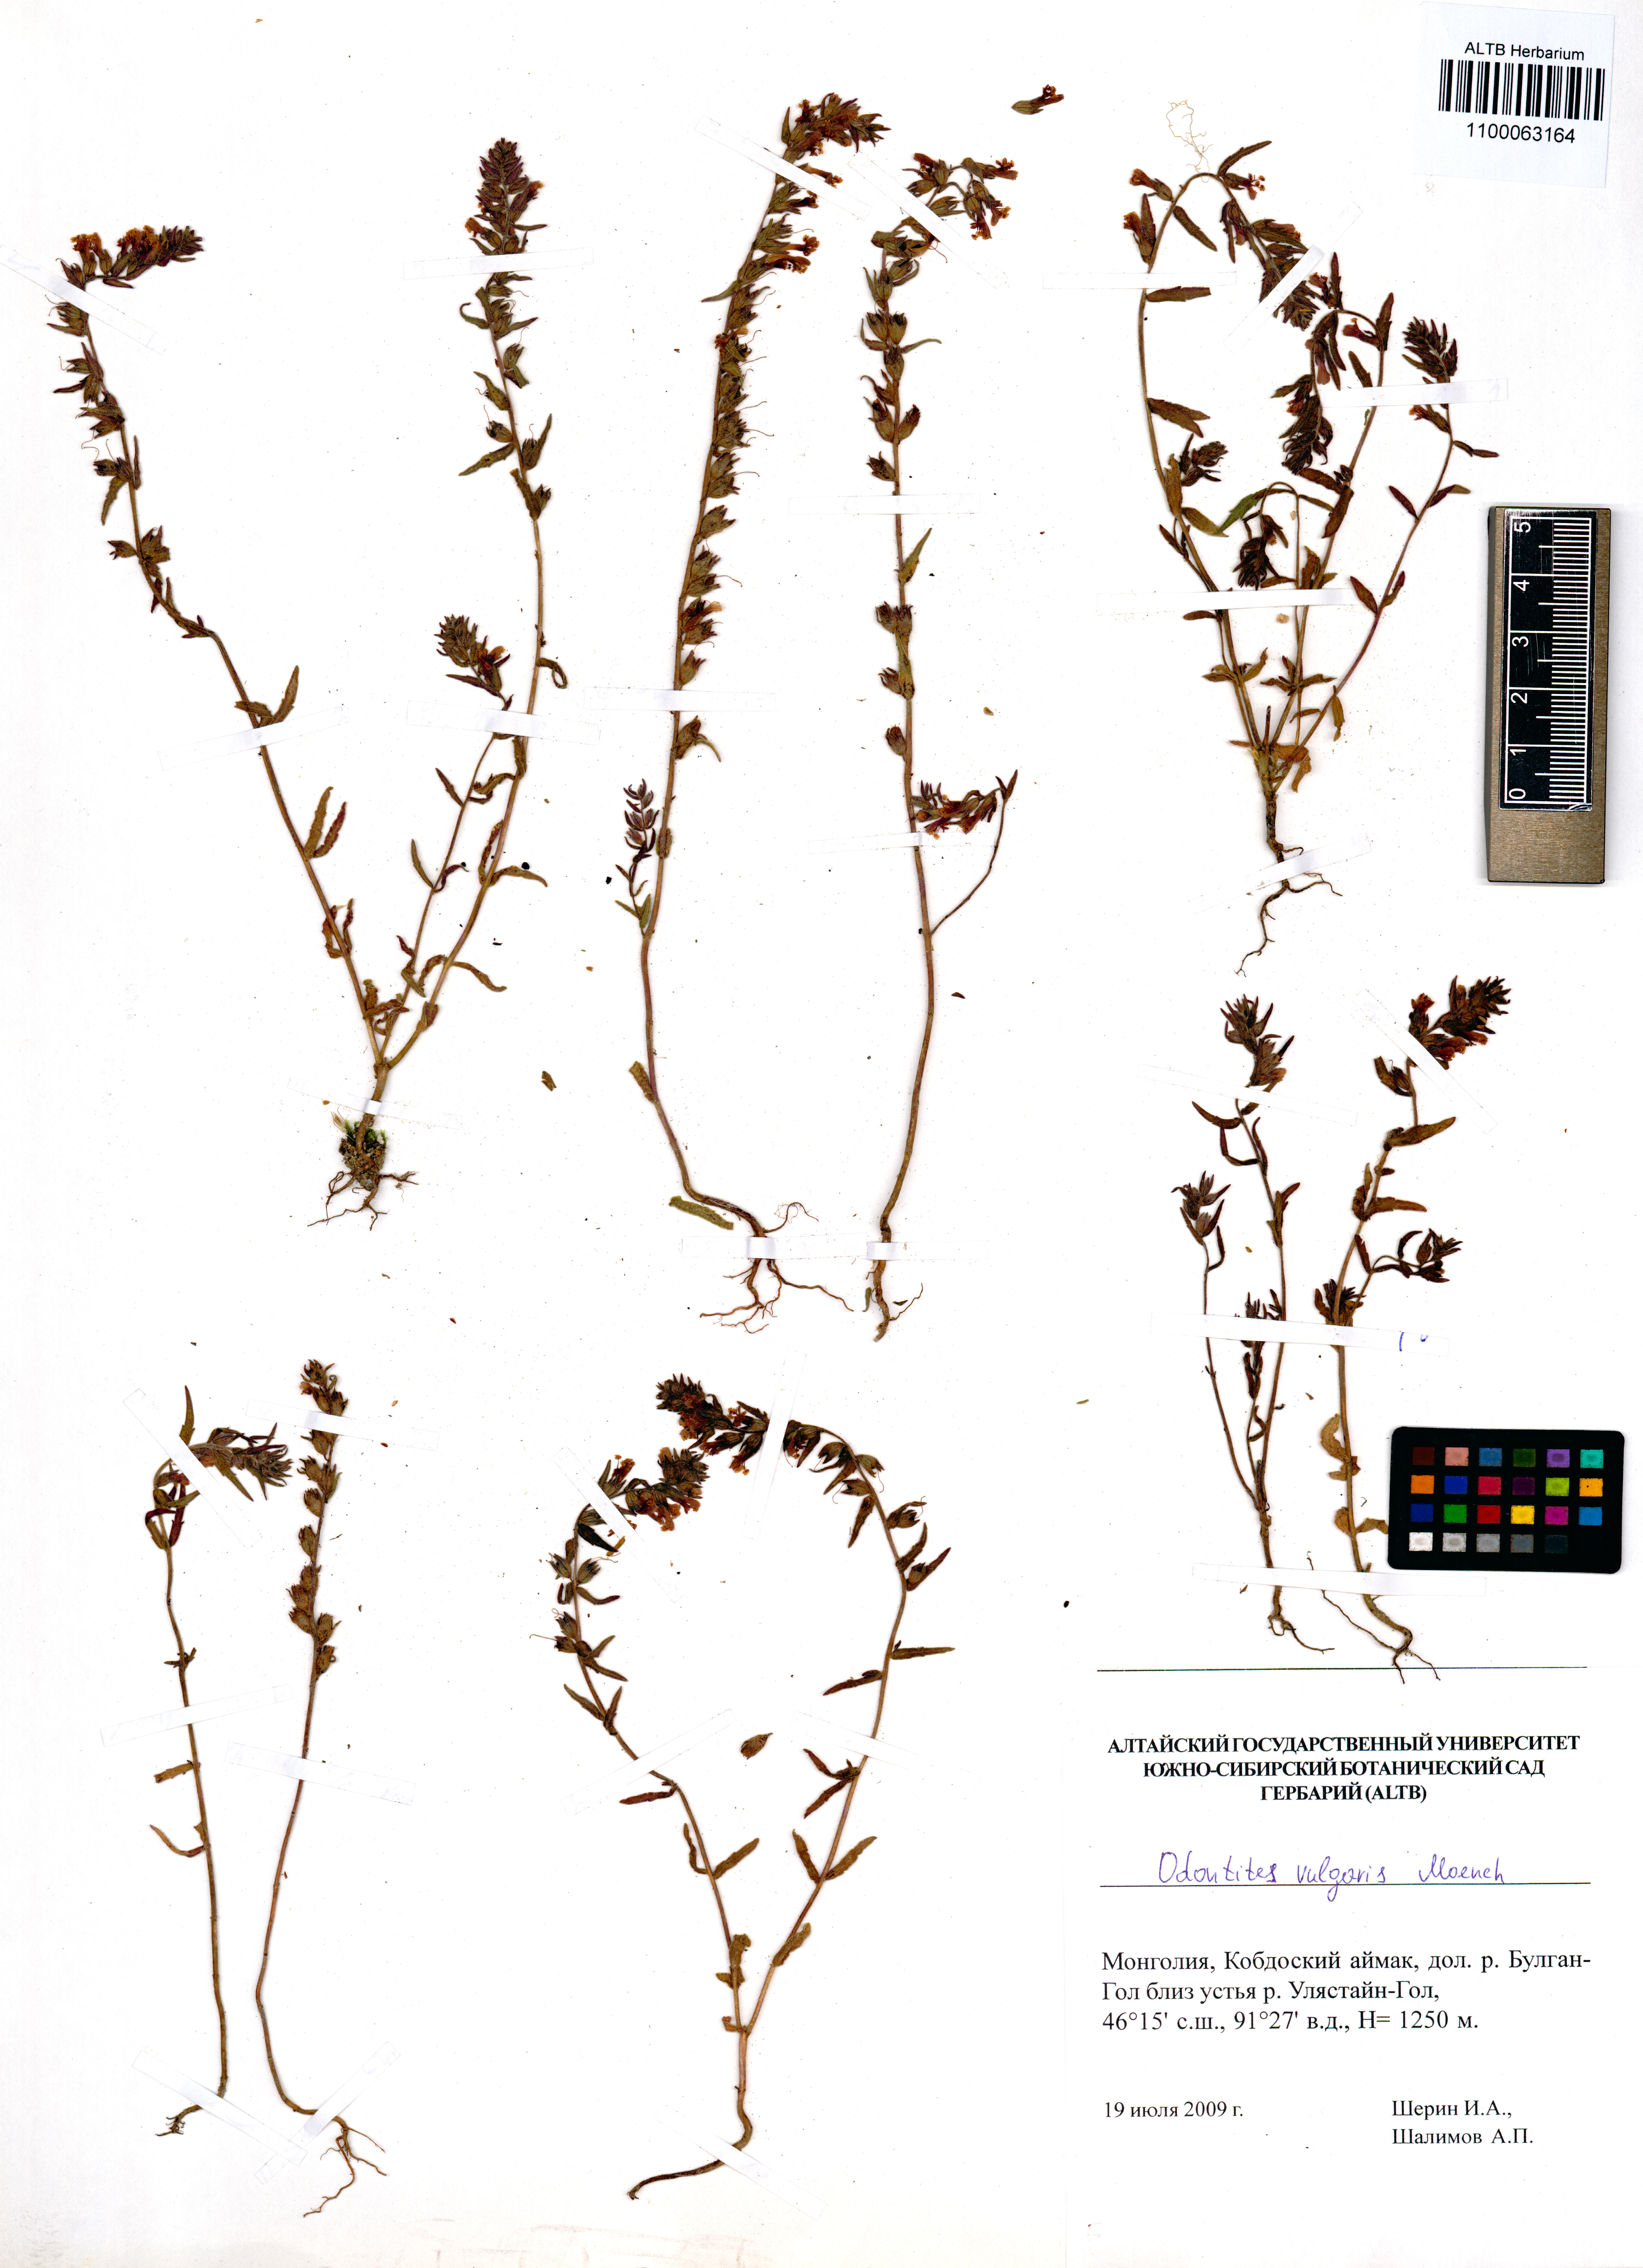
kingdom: Plantae
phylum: Tracheophyta
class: Magnoliopsida
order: Lamiales
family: Orobanchaceae
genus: Odontites
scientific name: Odontites vulgaris
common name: Broomrape
